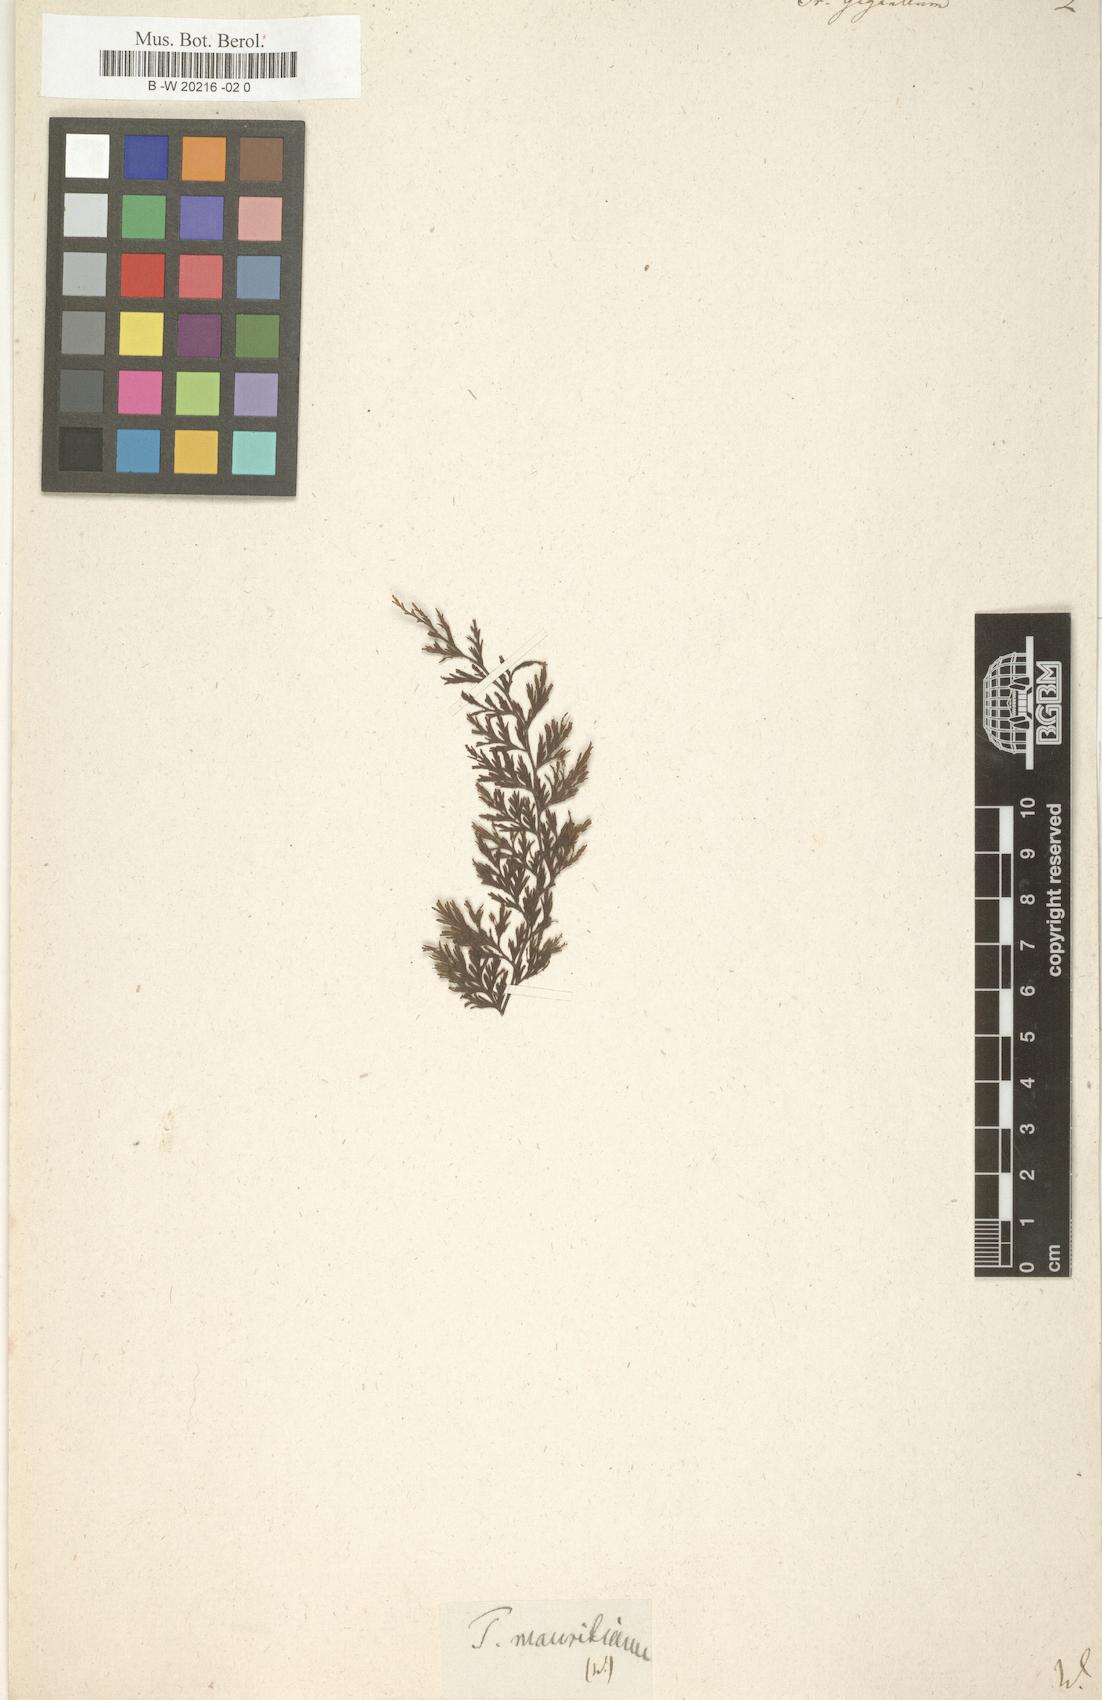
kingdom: Plantae
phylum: Tracheophyta
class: Polypodiopsida
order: Hymenophyllales
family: Hymenophyllaceae
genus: Vandenboschia
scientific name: Vandenboschia gigantea
